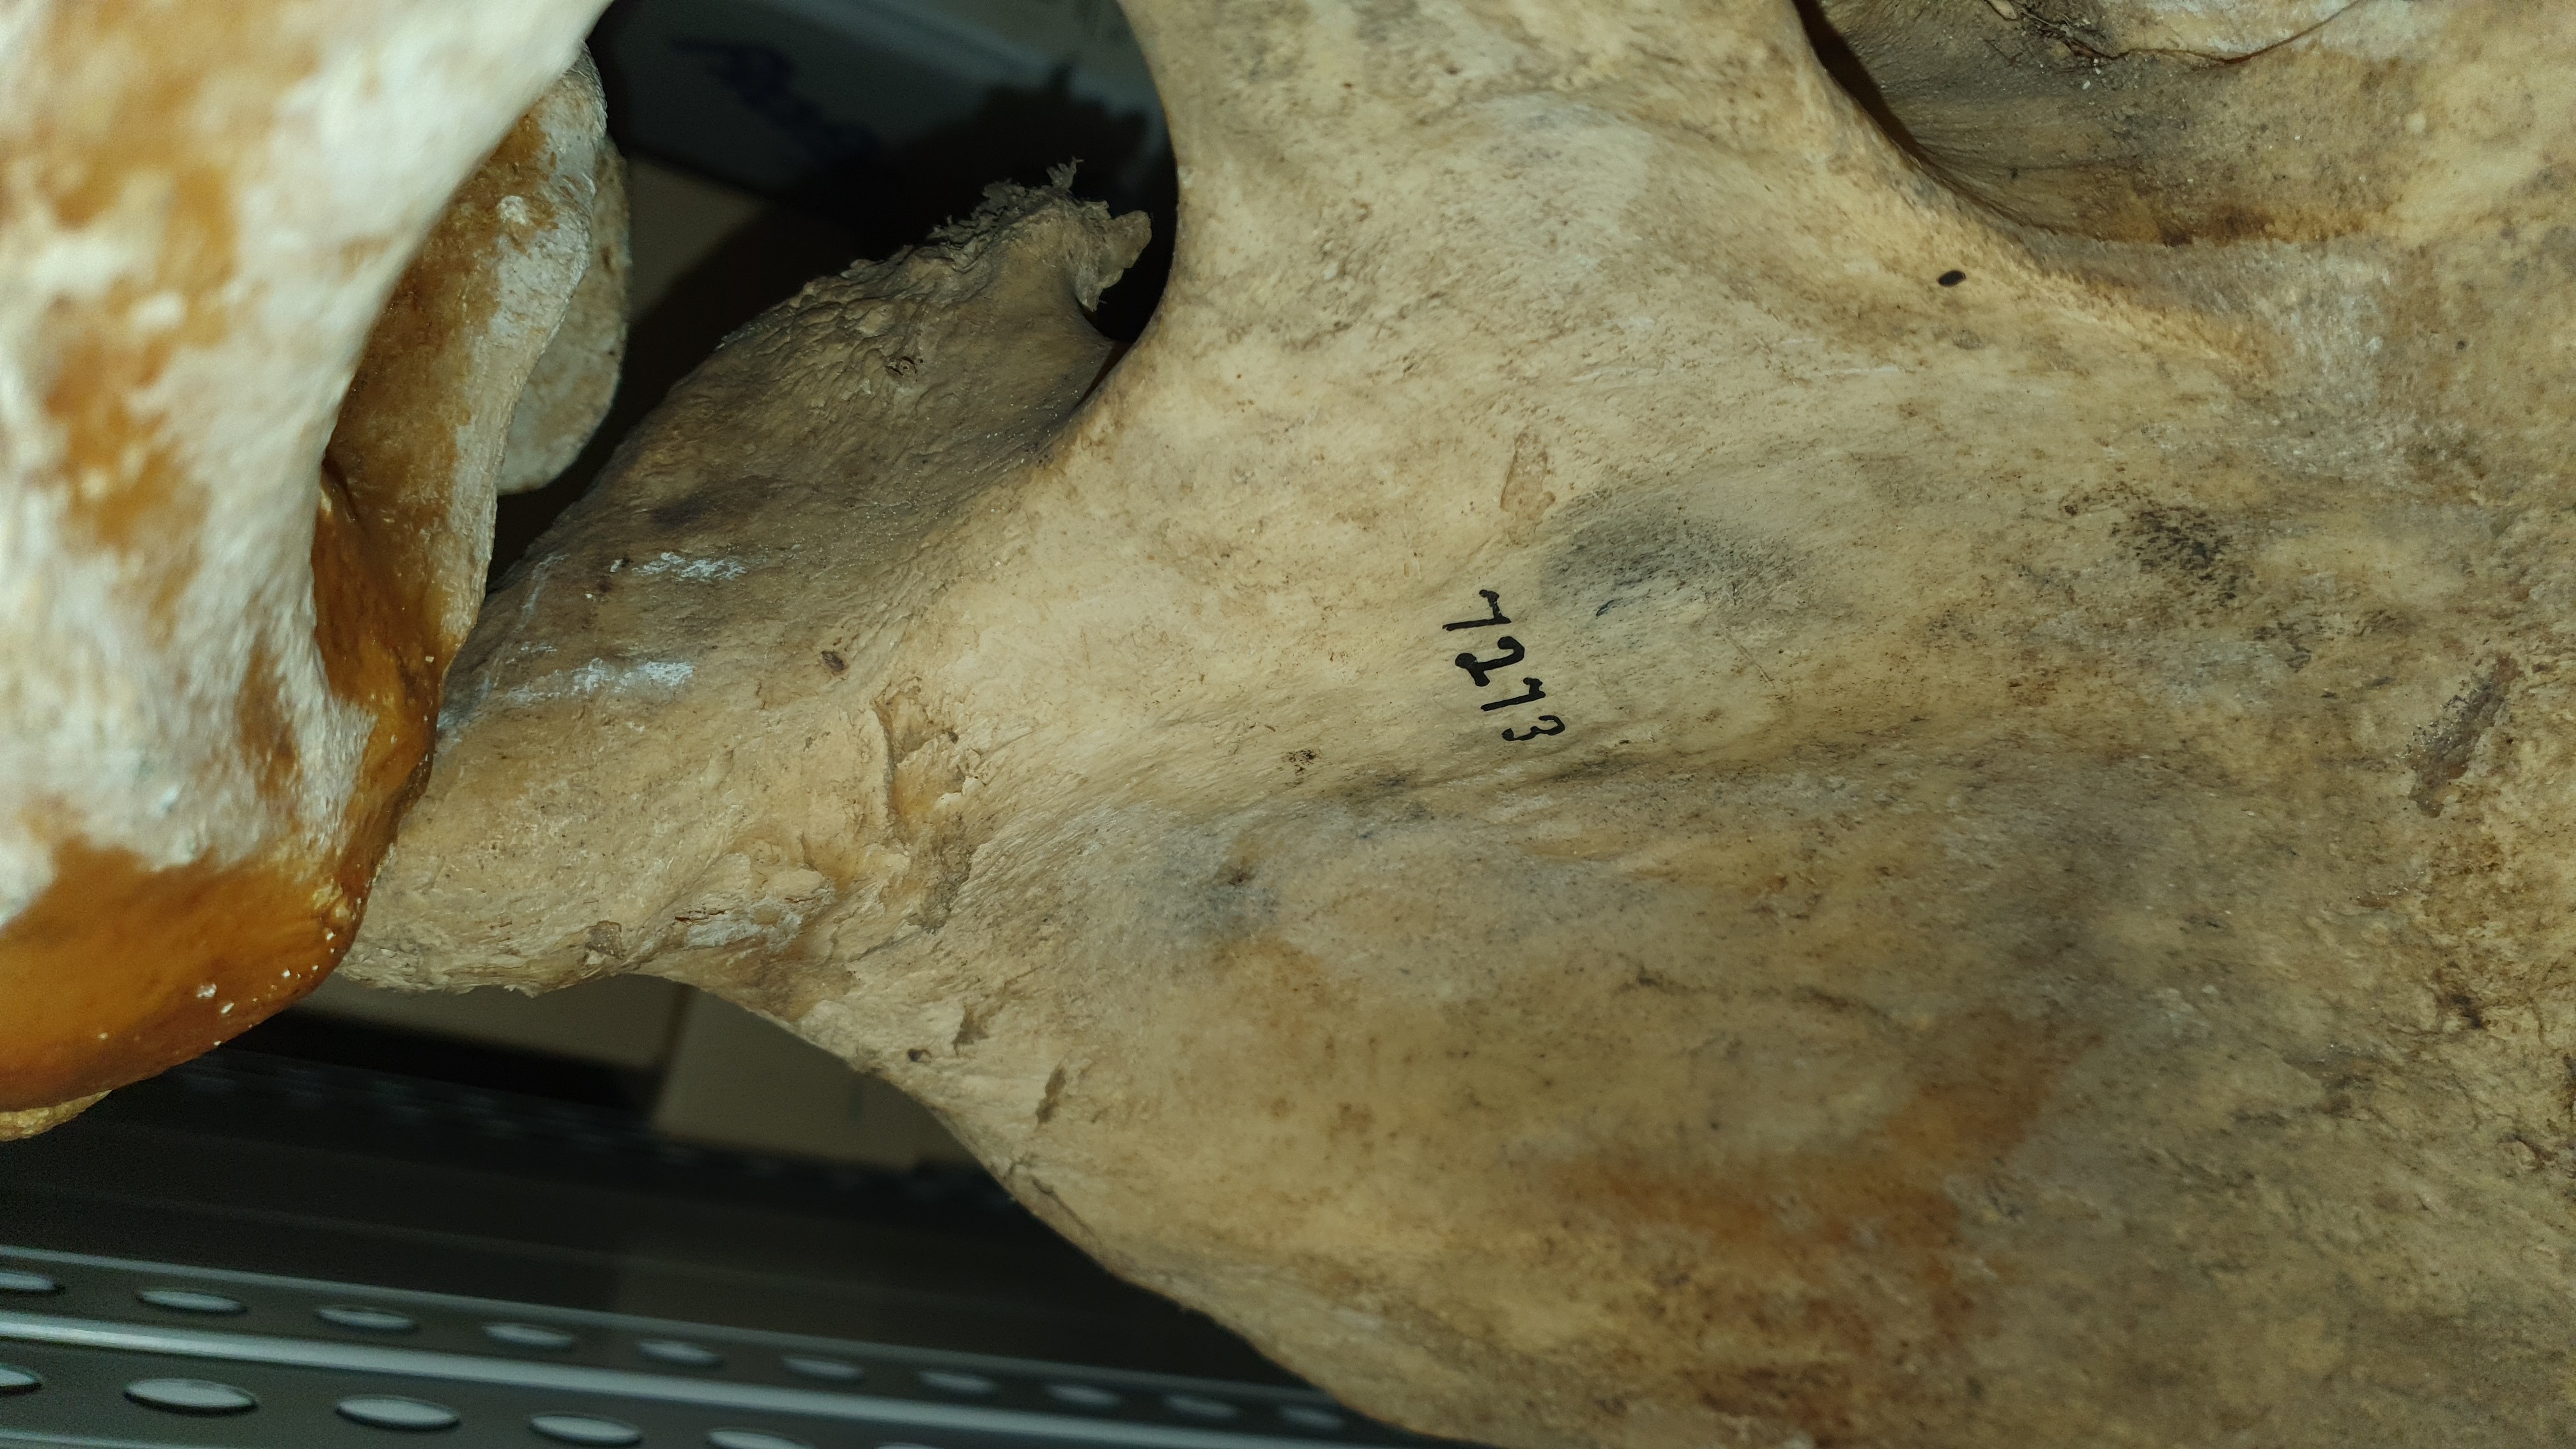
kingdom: Animalia
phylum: Chordata
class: Mammalia
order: Artiodactyla
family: Hippopotamidae
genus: Hippopotamus
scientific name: Hippopotamus
